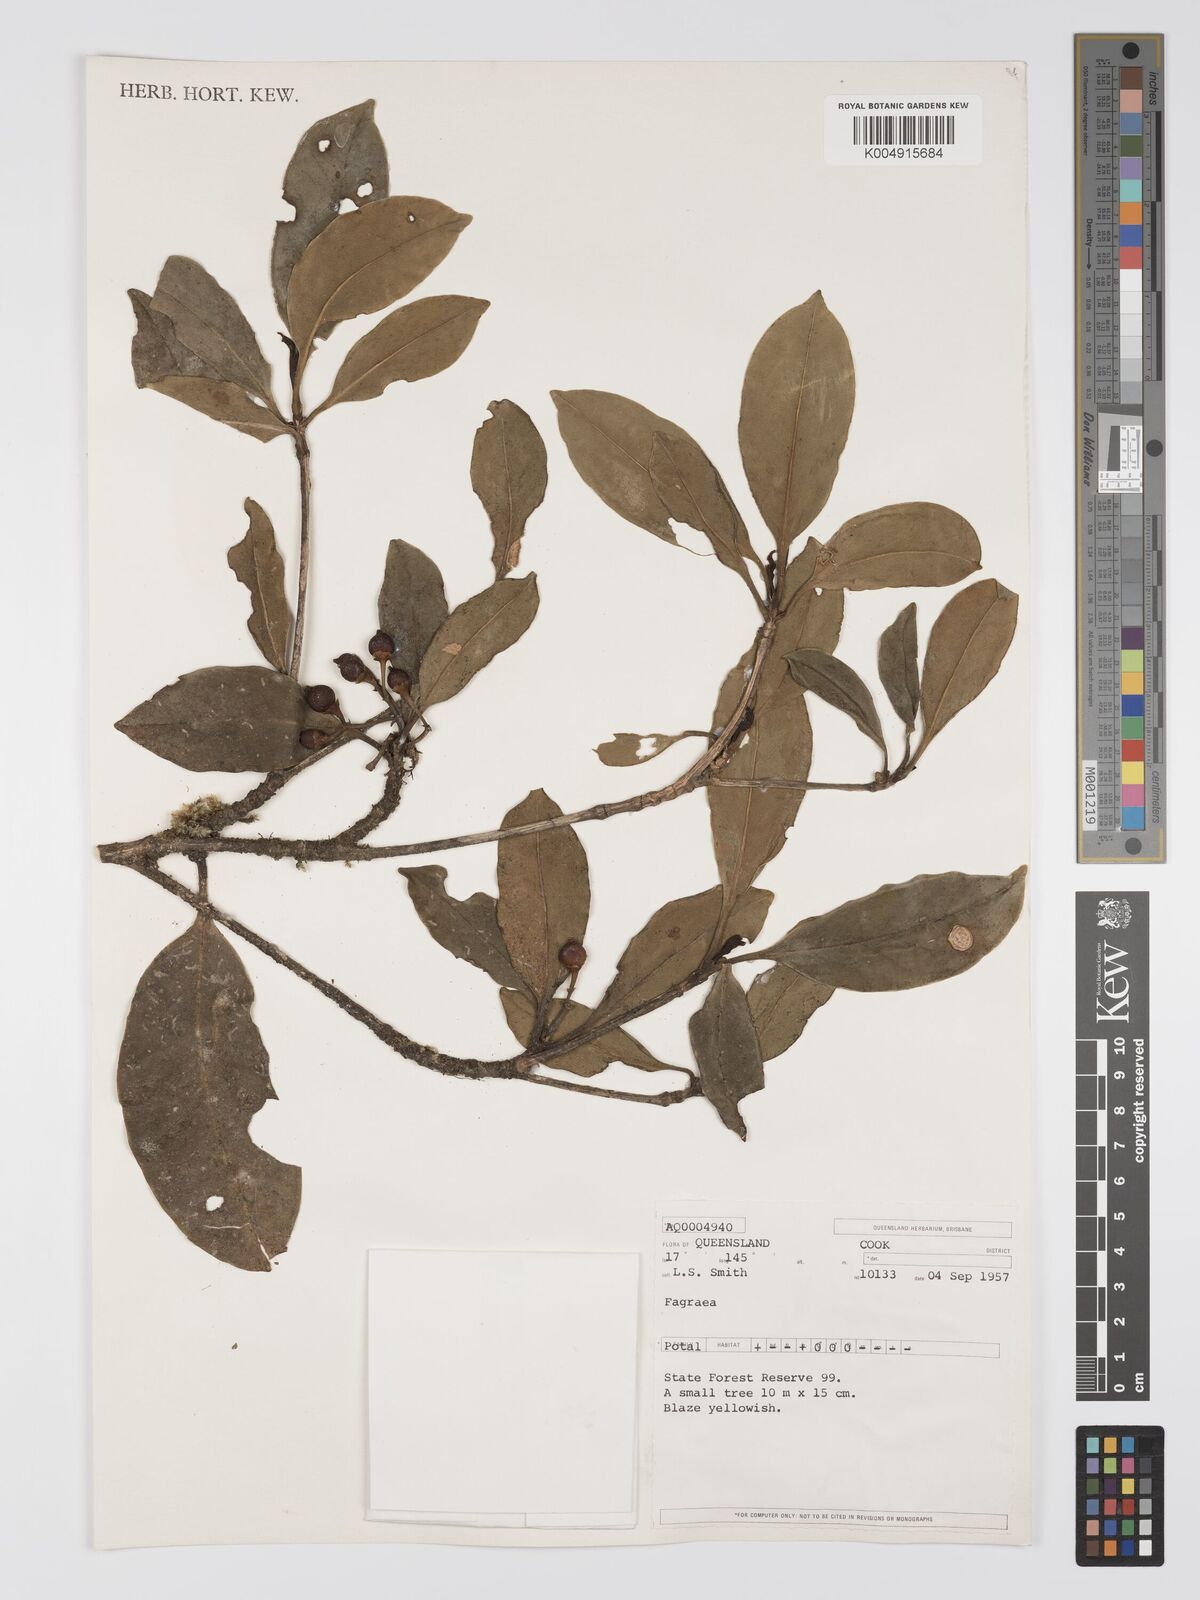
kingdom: Plantae
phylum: Tracheophyta
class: Magnoliopsida
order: Gentianales
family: Gentianaceae
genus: Fagraea
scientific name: Fagraea
